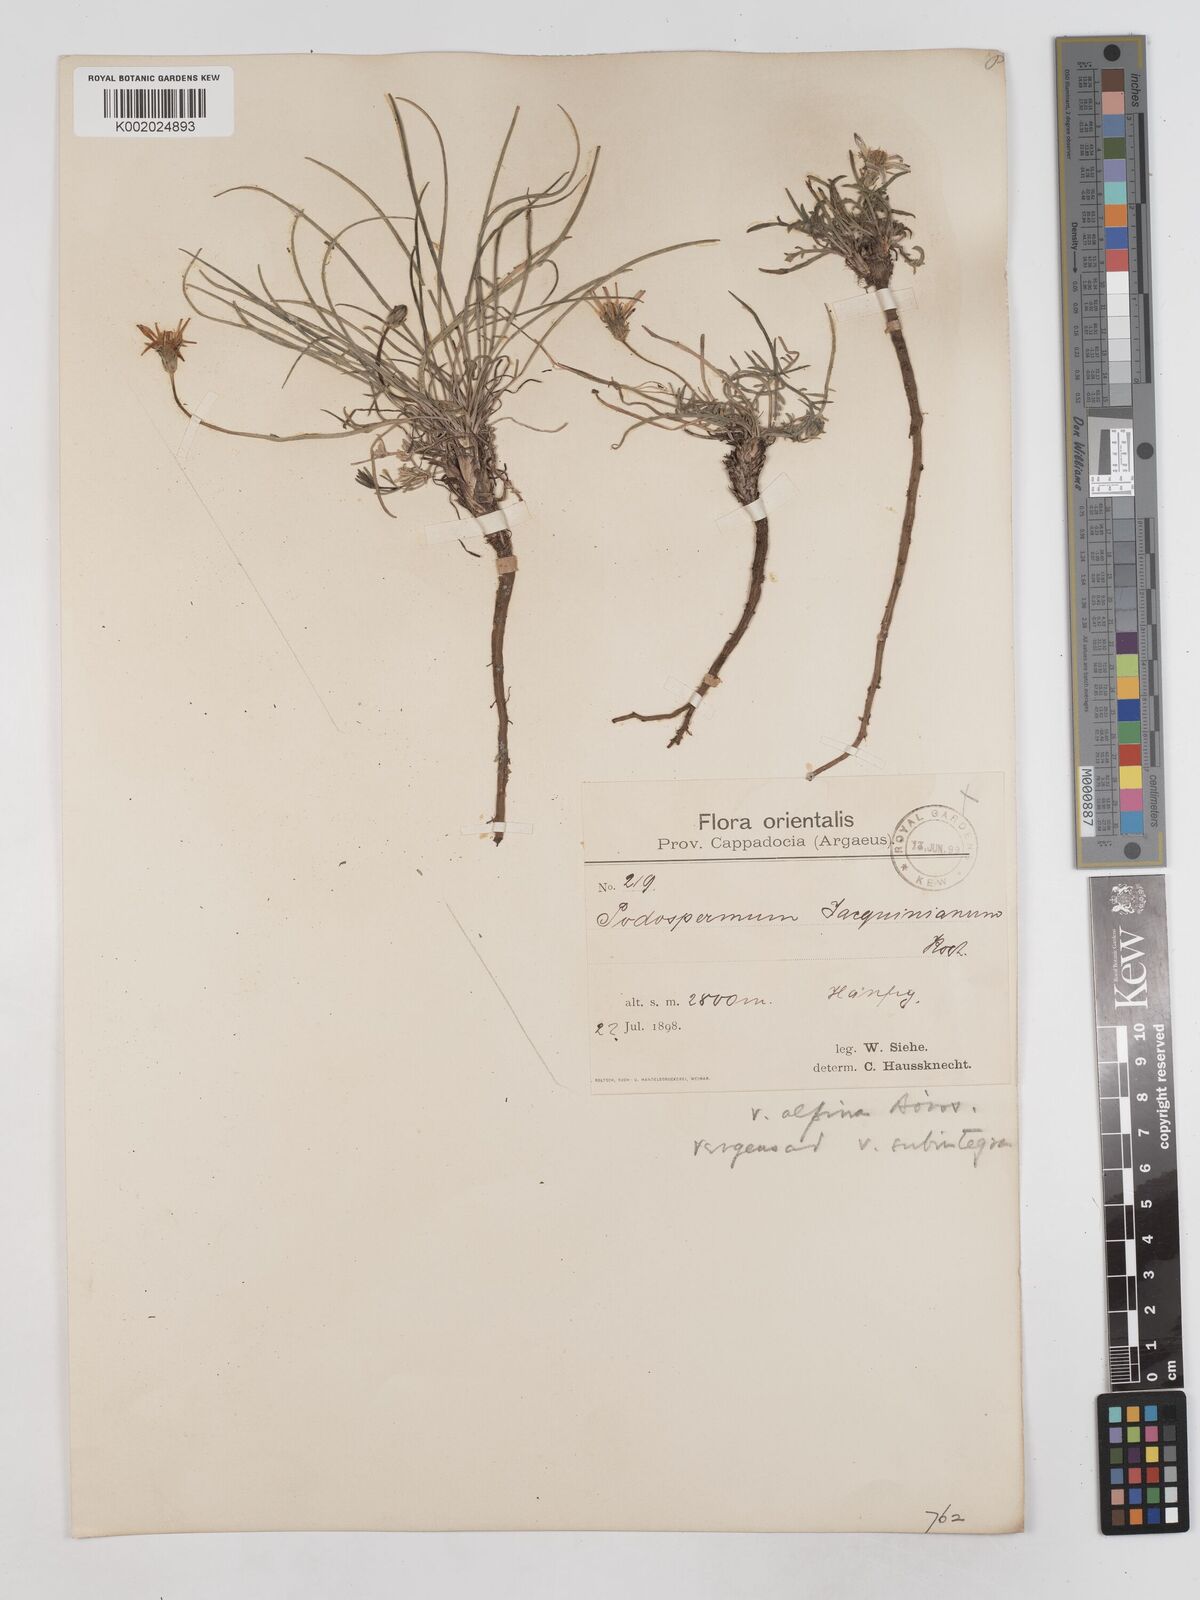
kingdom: Plantae
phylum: Tracheophyta
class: Magnoliopsida
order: Asterales
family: Asteraceae
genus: Scorzonera
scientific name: Scorzonera cana
